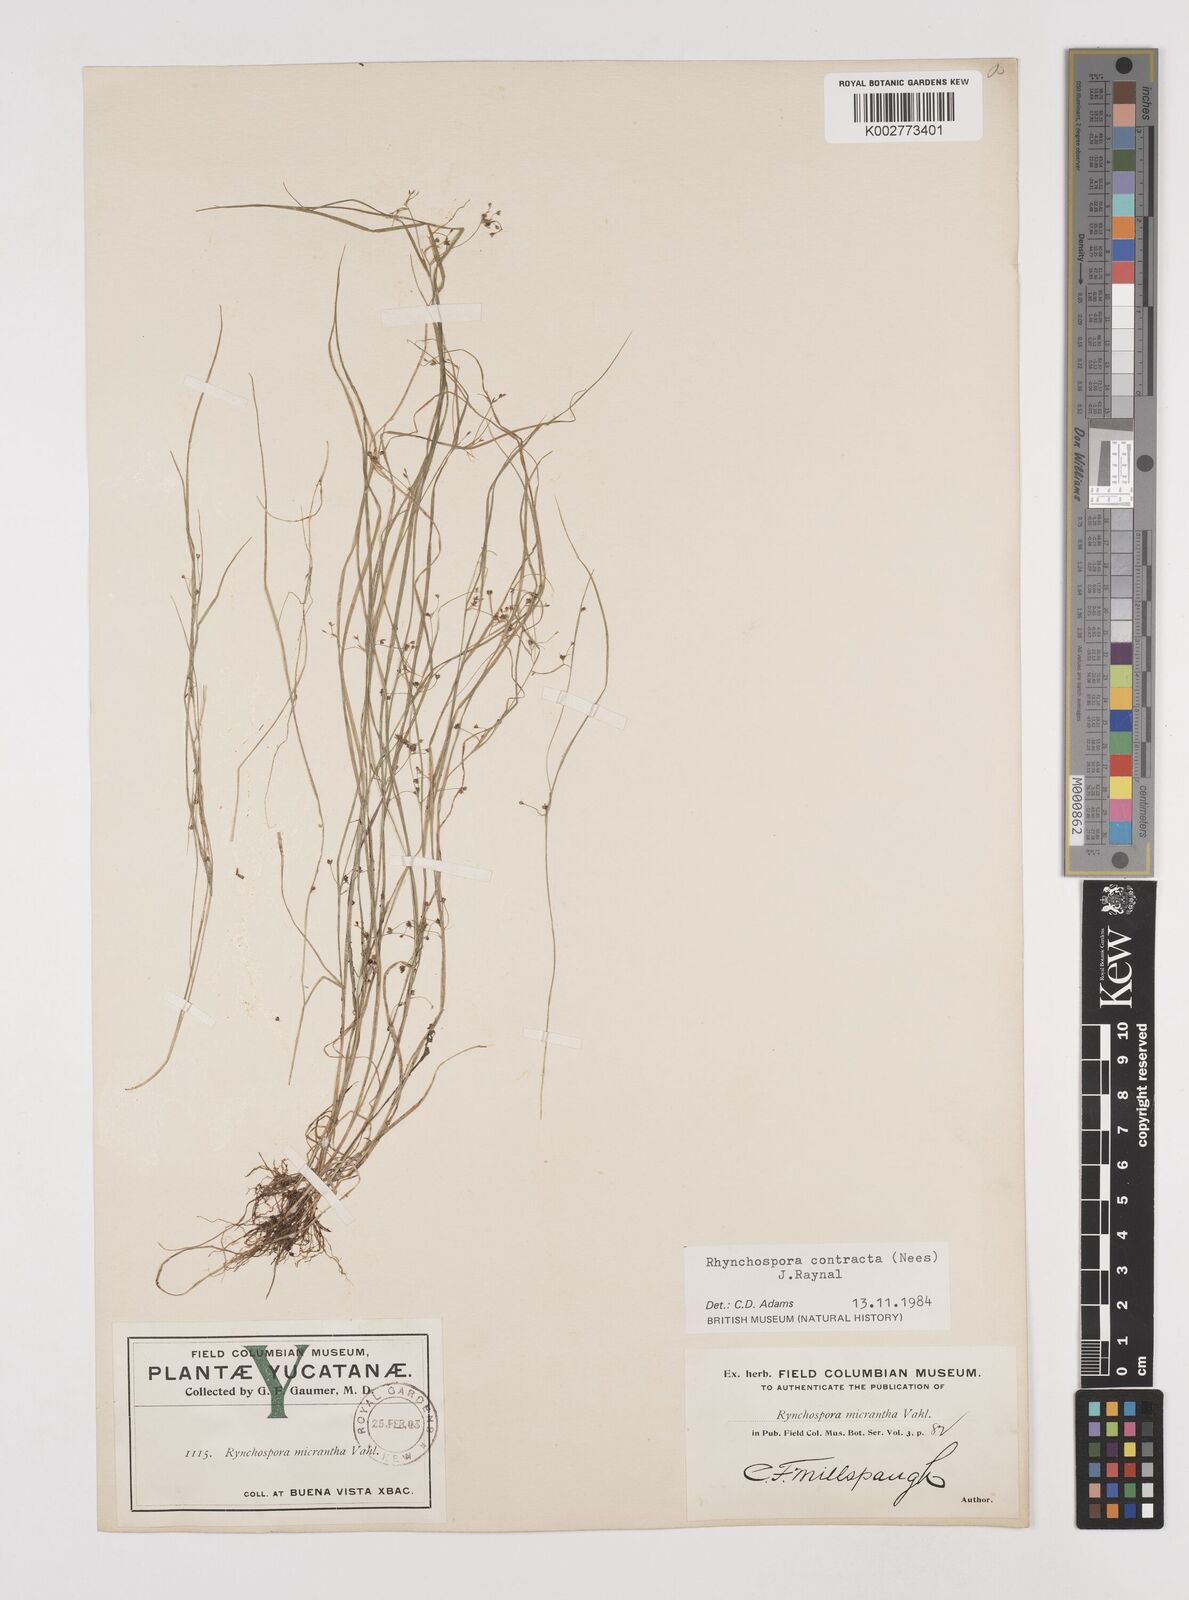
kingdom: Plantae
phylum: Tracheophyta
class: Liliopsida
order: Poales
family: Cyperaceae
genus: Rhynchospora
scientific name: Rhynchospora contracta
